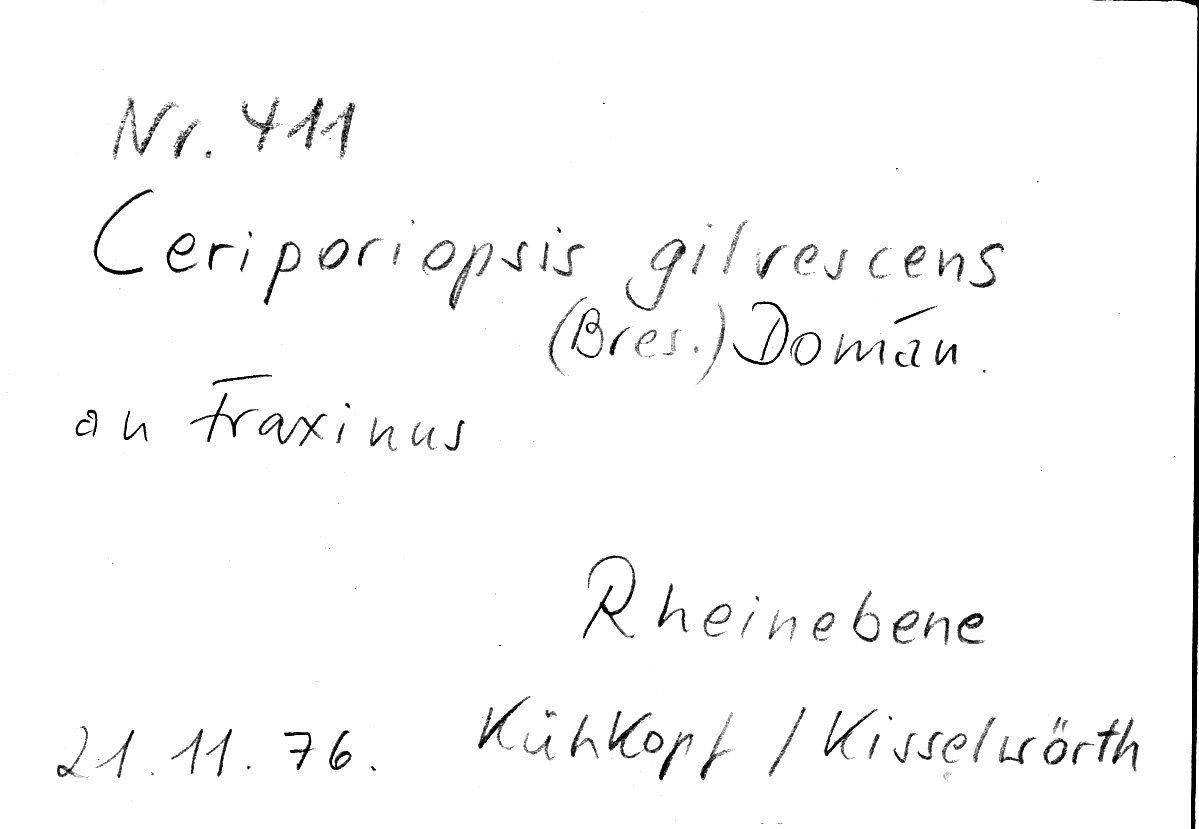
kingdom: Fungi
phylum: Basidiomycota
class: Agaricomycetes
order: Polyporales
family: Meruliaceae
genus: Mycoacia
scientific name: Mycoacia gilvescens
